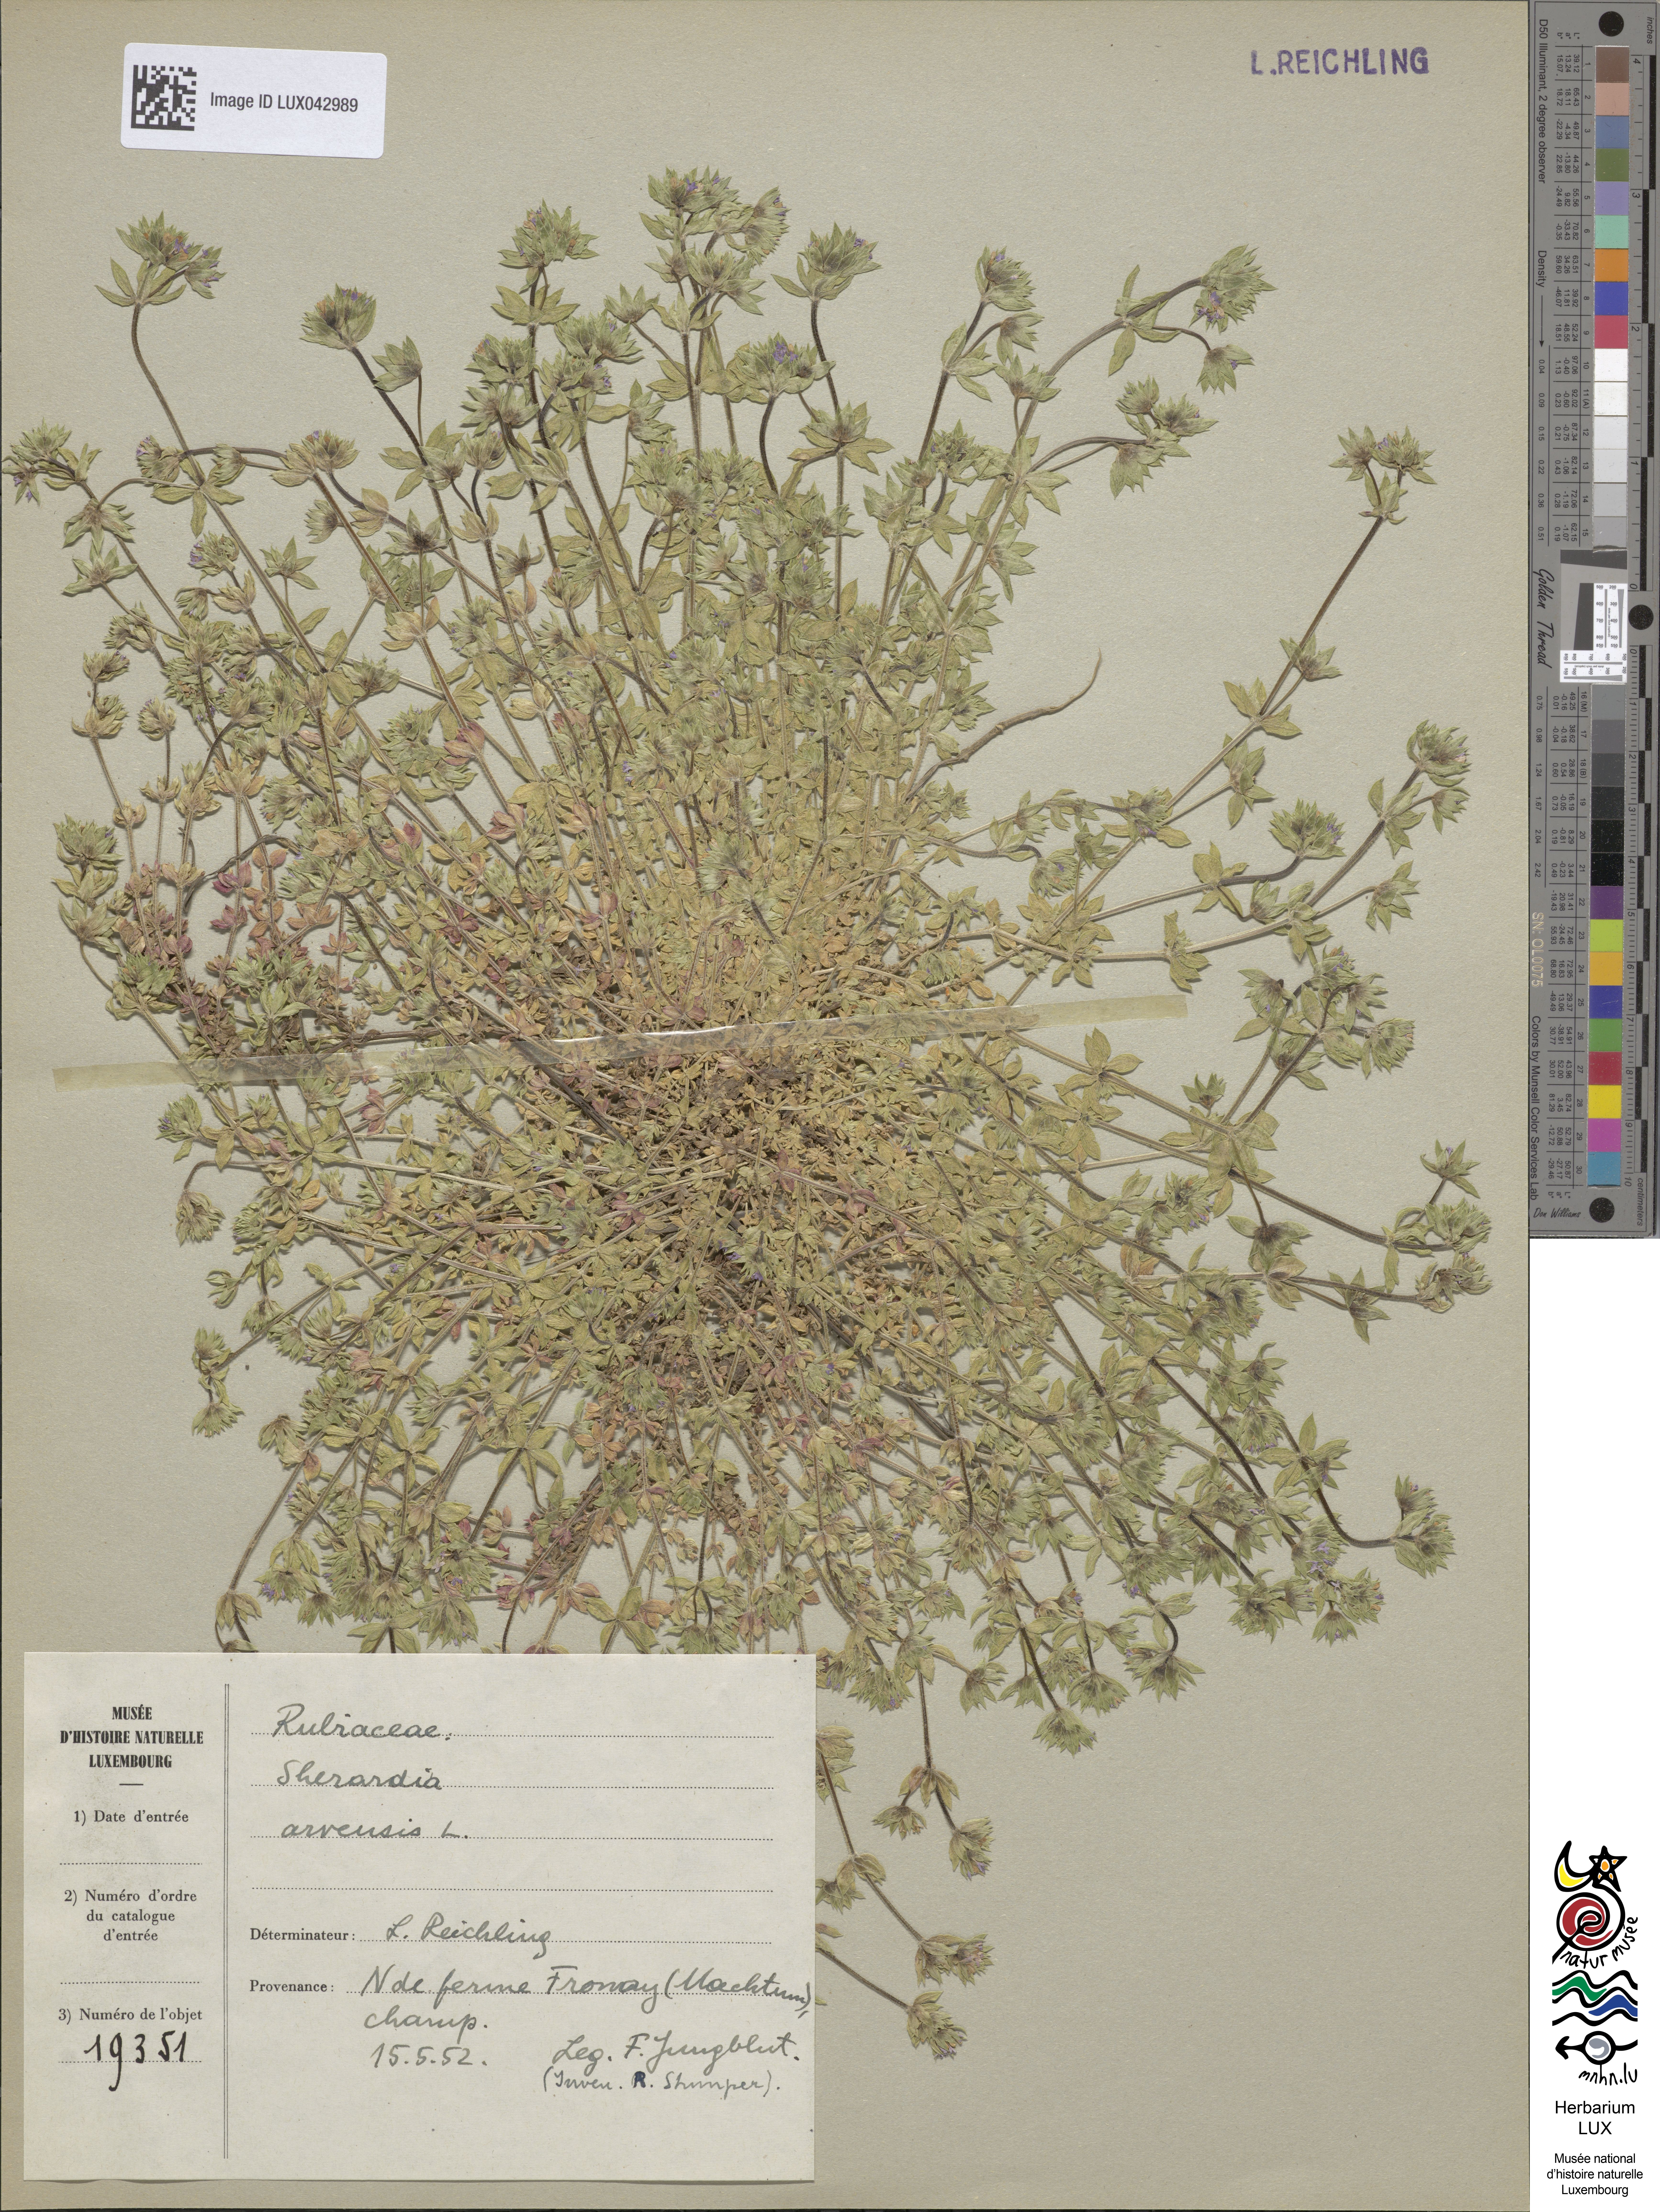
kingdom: Plantae
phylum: Tracheophyta
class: Magnoliopsida
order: Gentianales
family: Rubiaceae
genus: Sherardia
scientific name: Sherardia arvensis
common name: Field madder
